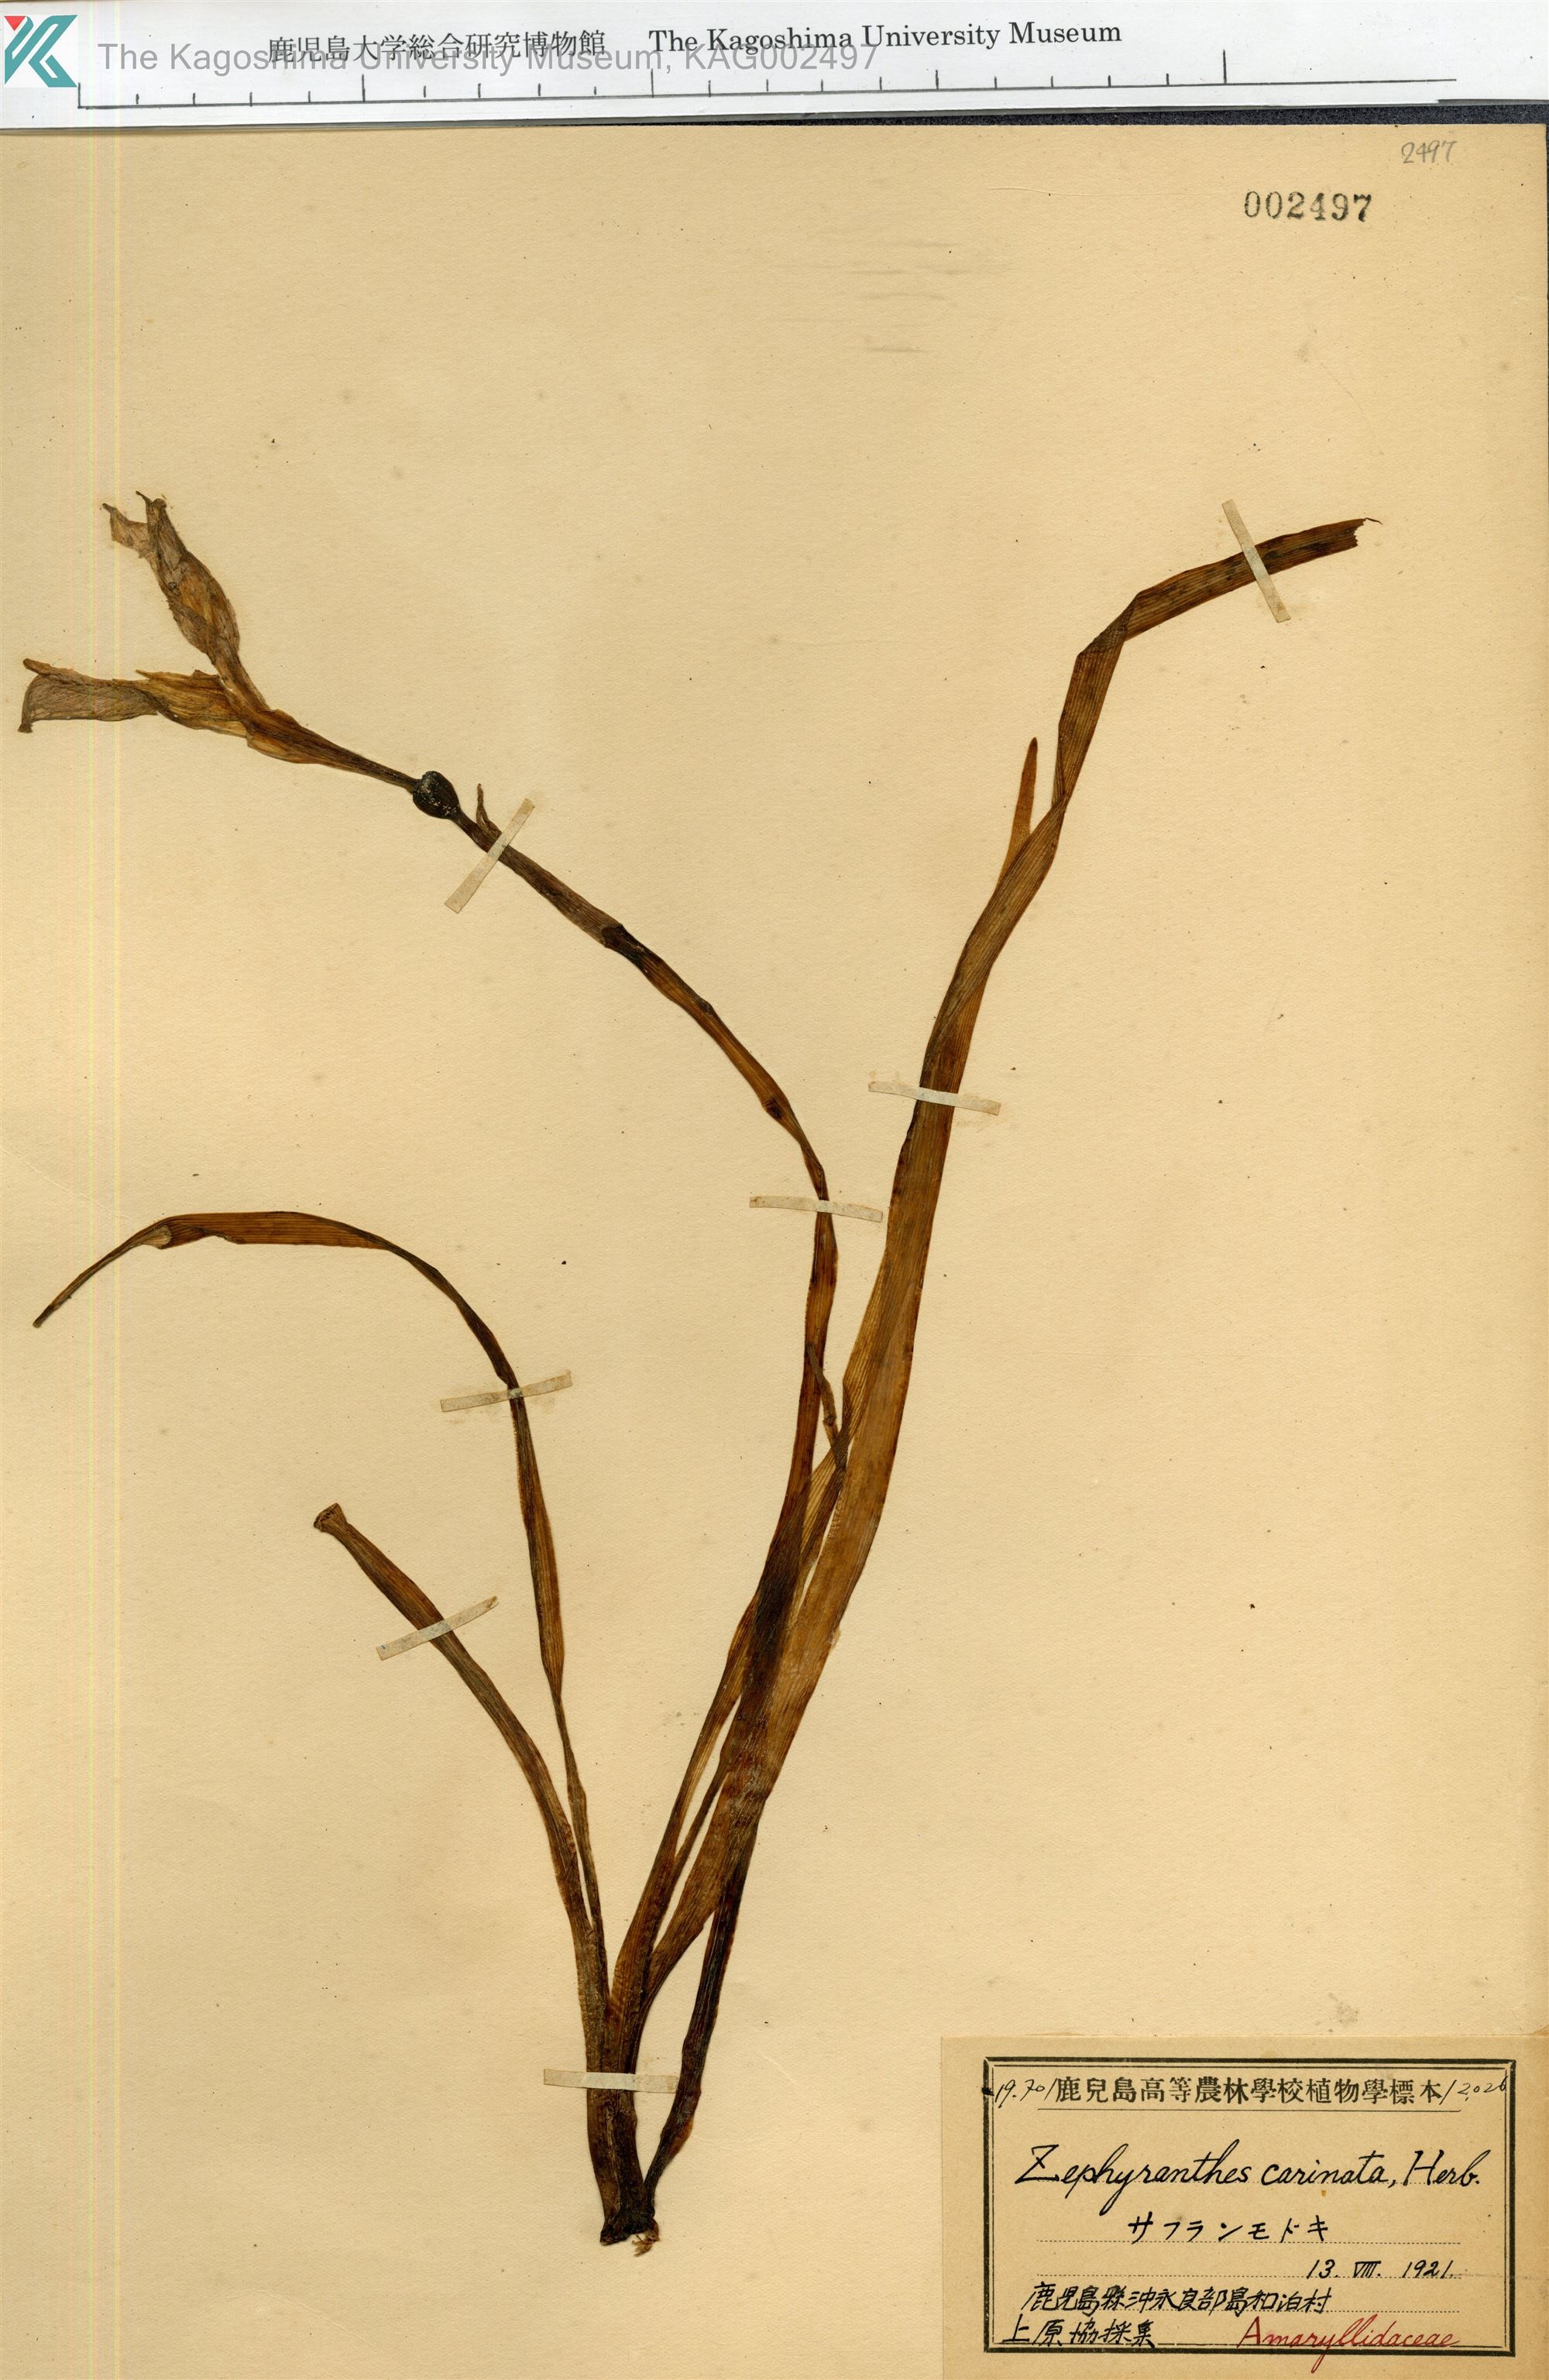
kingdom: Plantae
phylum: Tracheophyta
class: Liliopsida
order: Asparagales
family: Amaryllidaceae
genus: Zephyranthes
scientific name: Zephyranthes carinata
